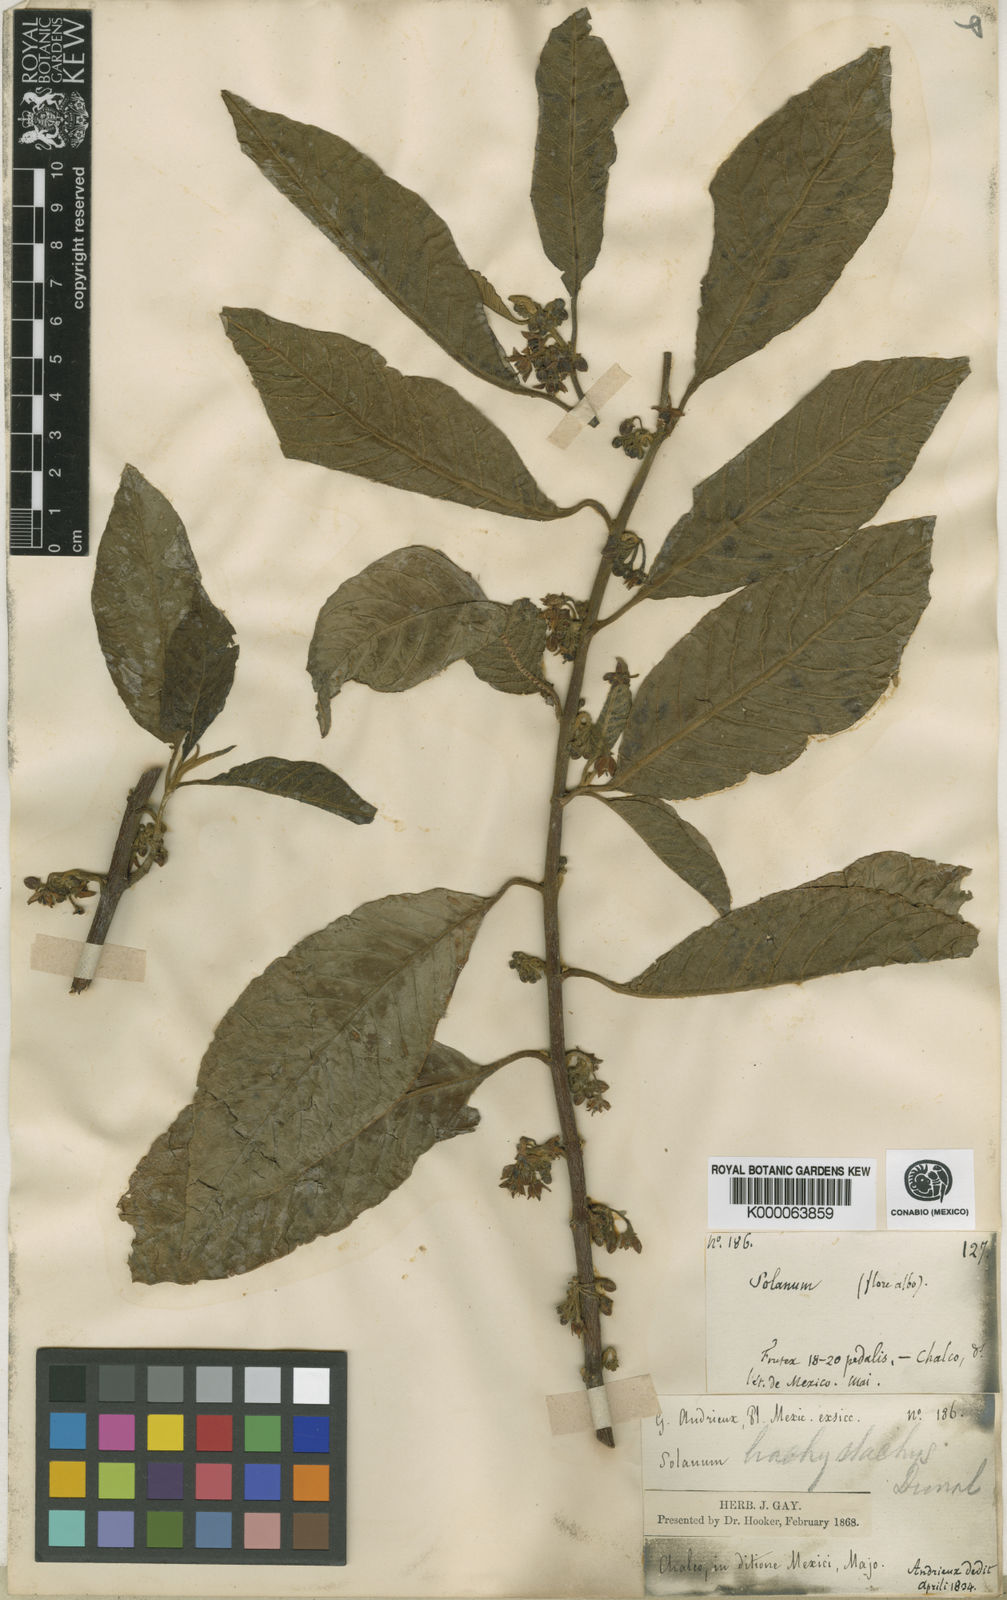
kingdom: Plantae
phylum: Tracheophyta
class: Magnoliopsida
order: Solanales
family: Solanaceae
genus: Solanum
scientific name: Solanum nigricans
